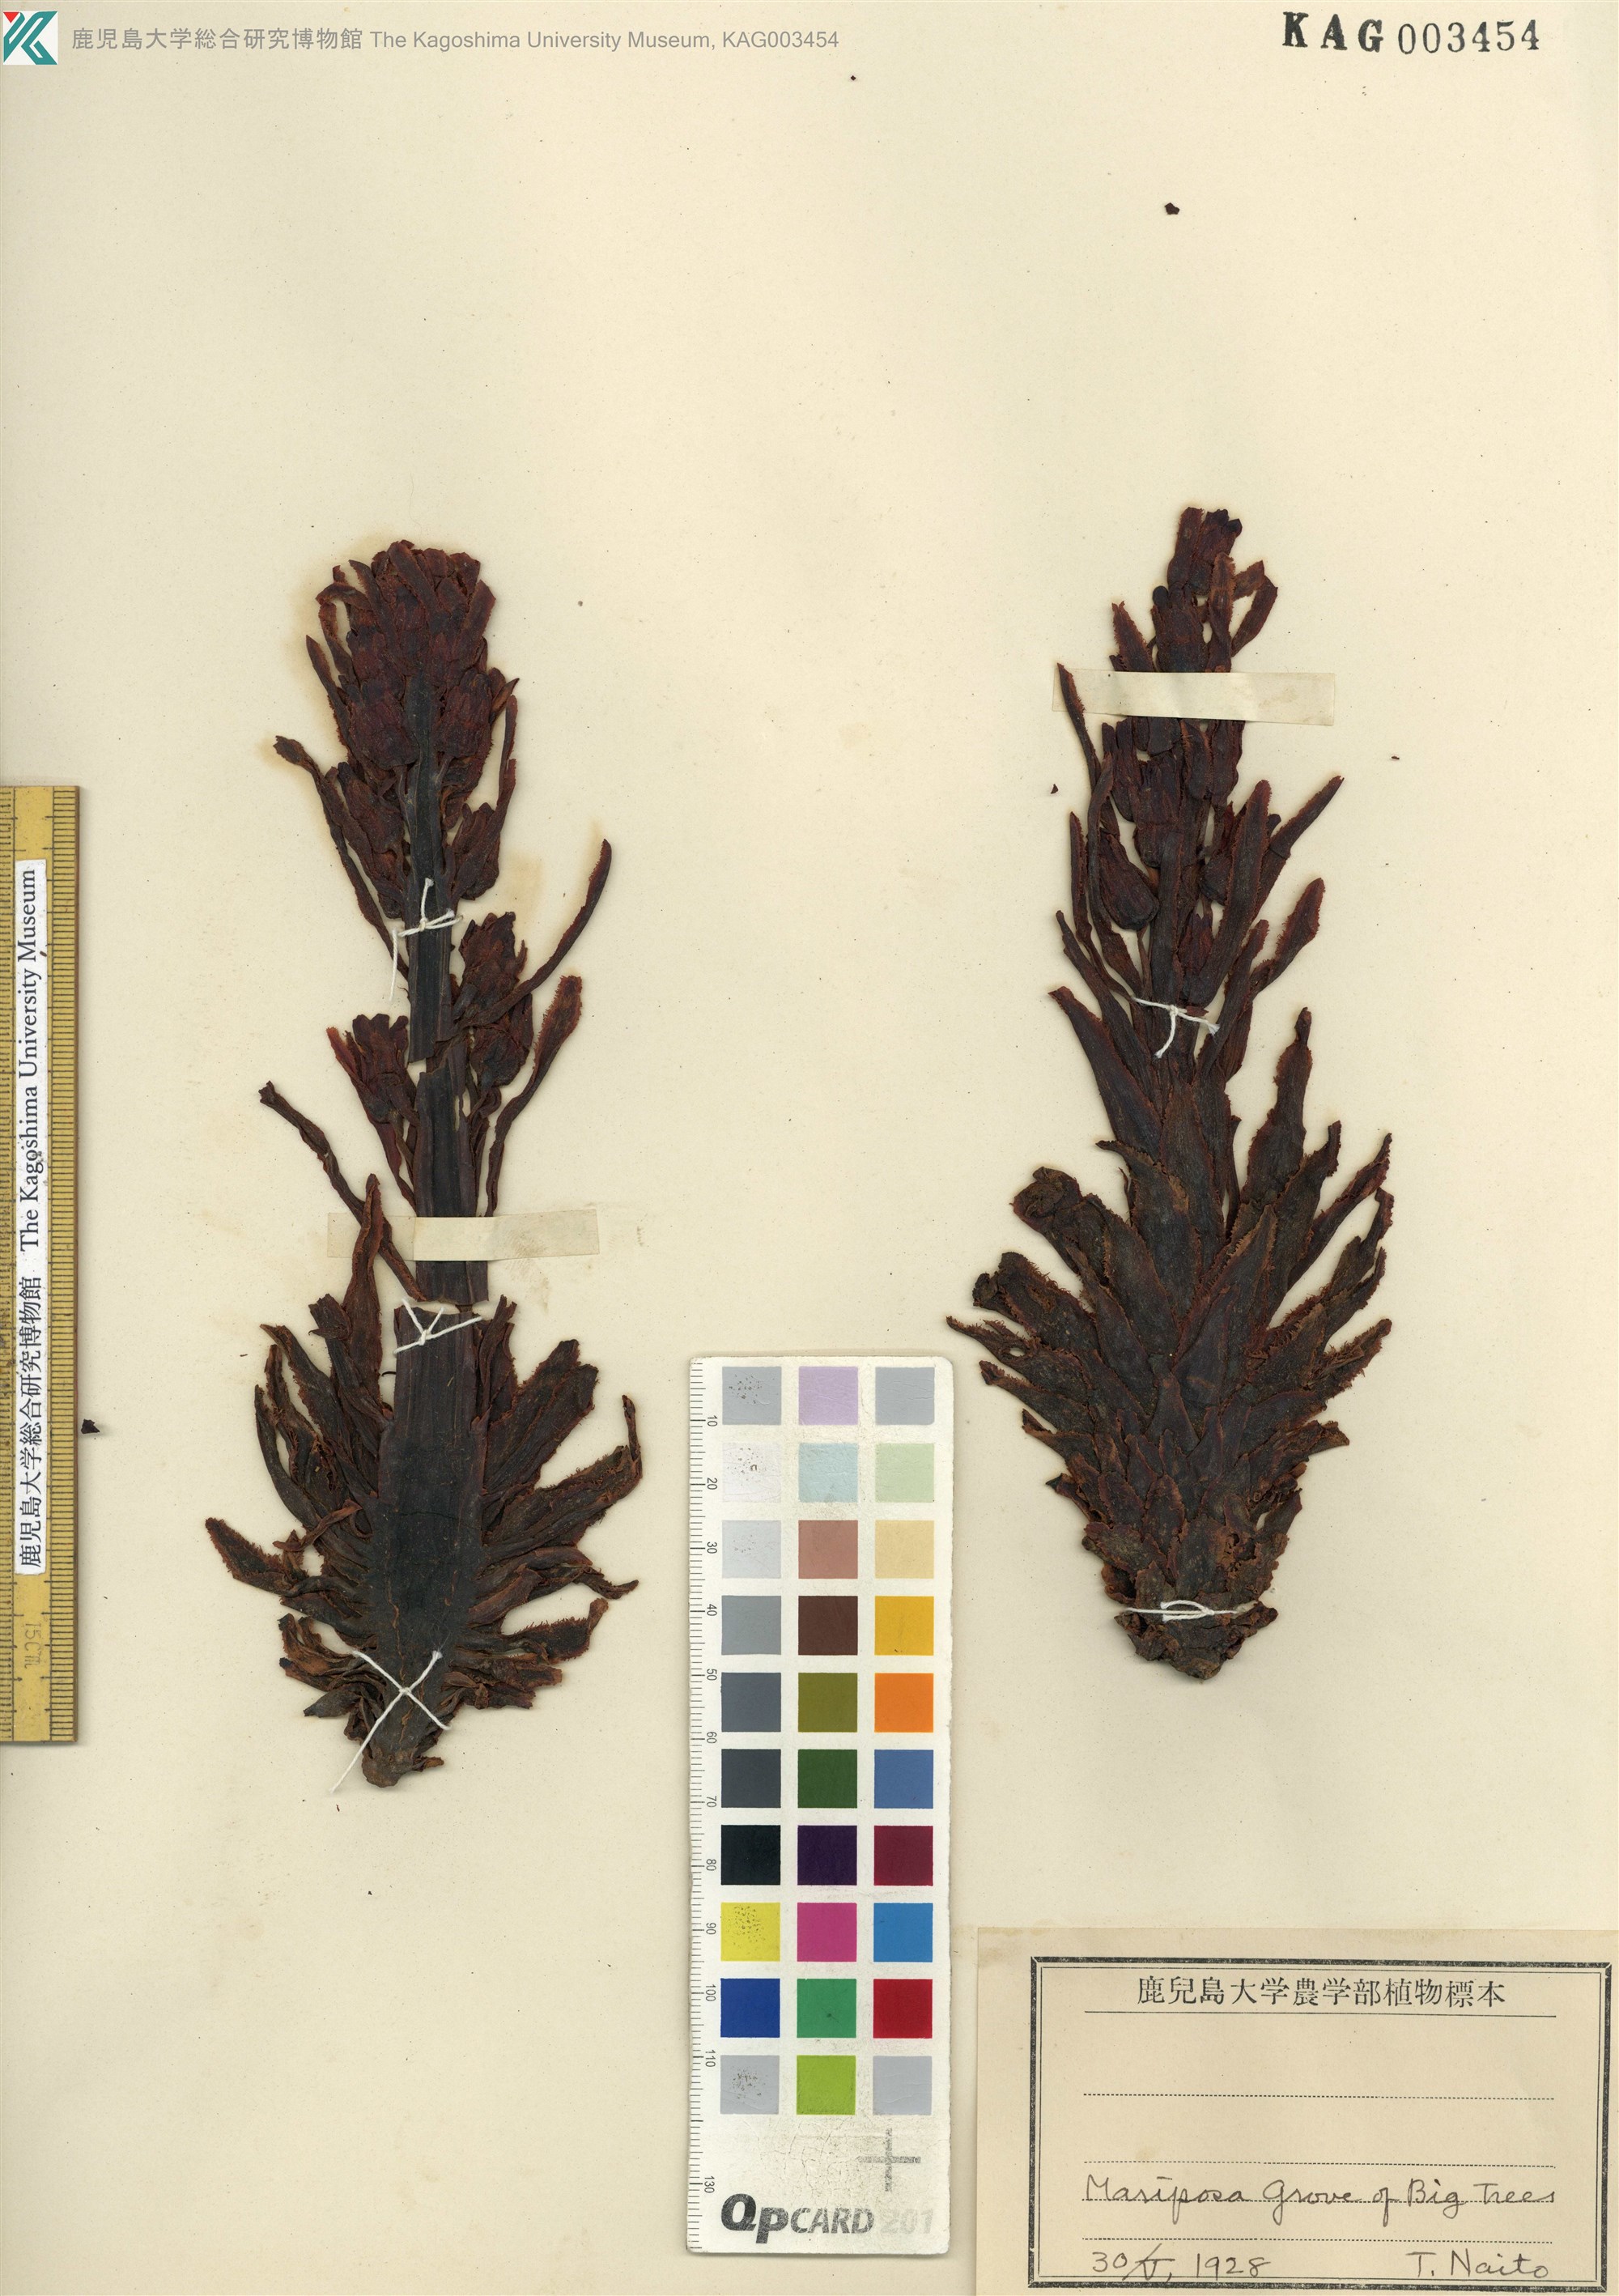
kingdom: Plantae
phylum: Tracheophyta
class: Magnoliopsida
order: Ericales
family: Ericaceae
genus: Sarcodes
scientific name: Sarcodes sanguinea
